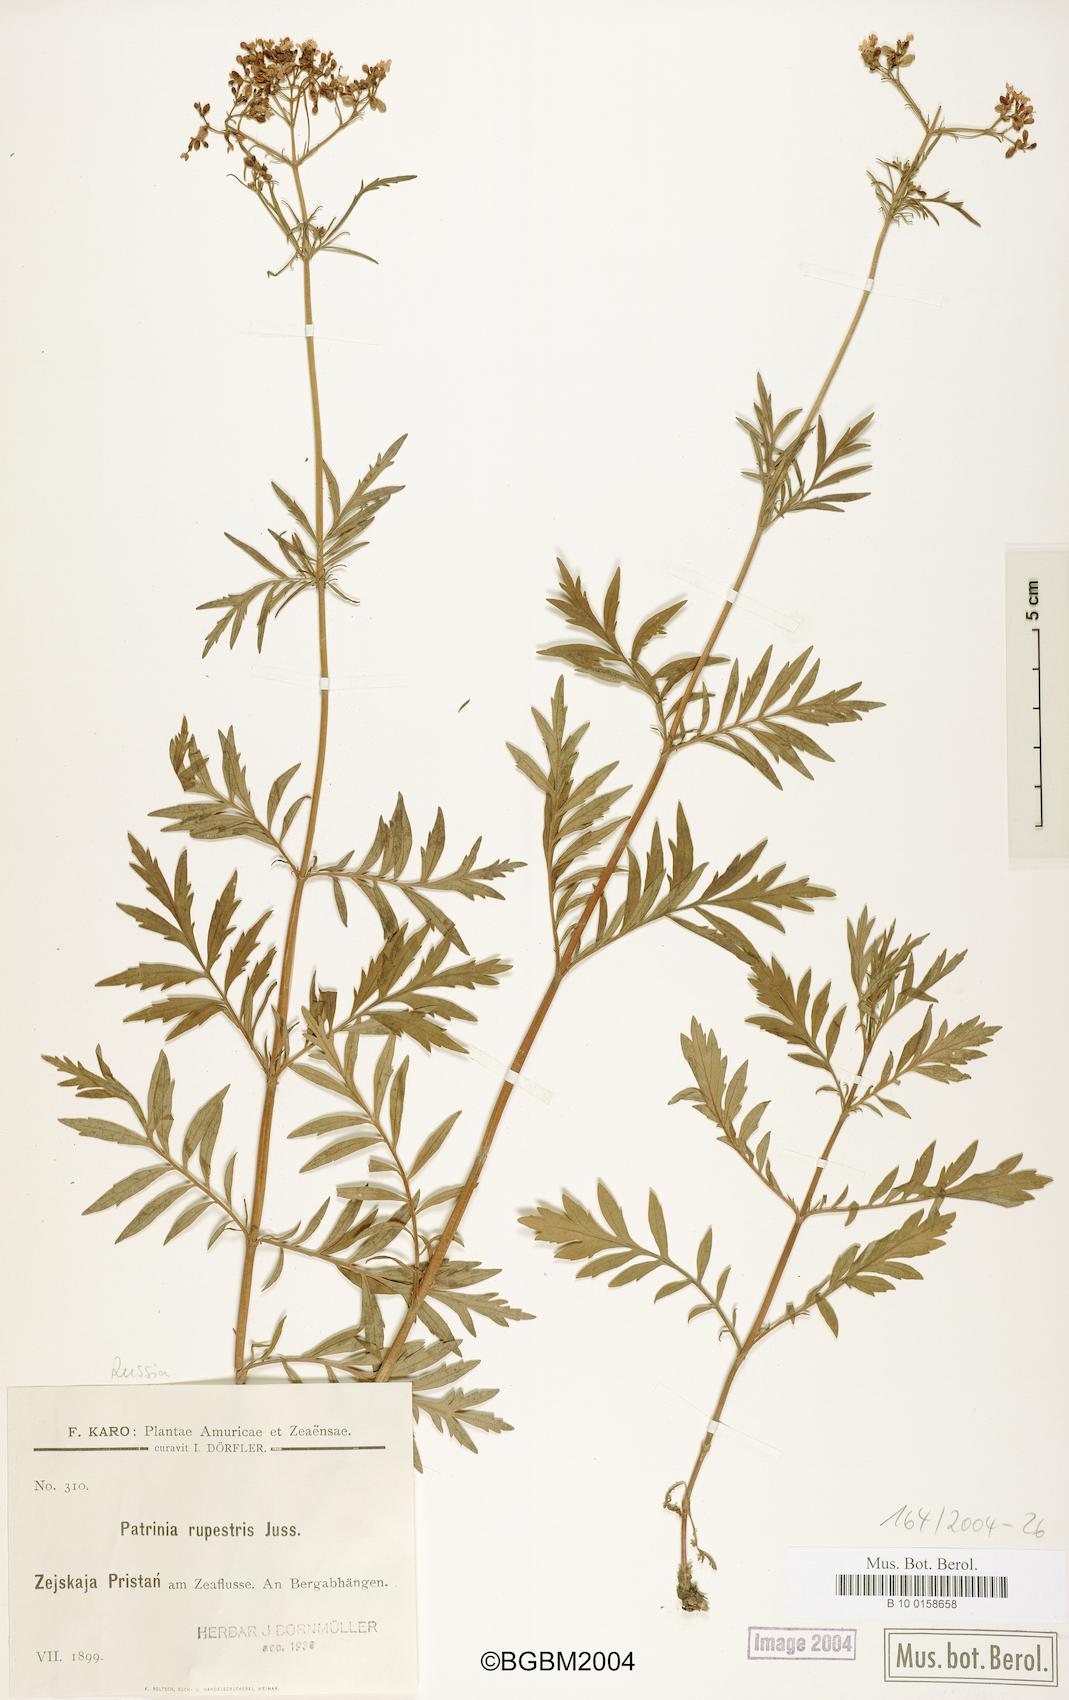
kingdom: Plantae
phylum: Tracheophyta
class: Magnoliopsida
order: Dipsacales
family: Caprifoliaceae
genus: Patrinia
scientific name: Patrinia rupestris
